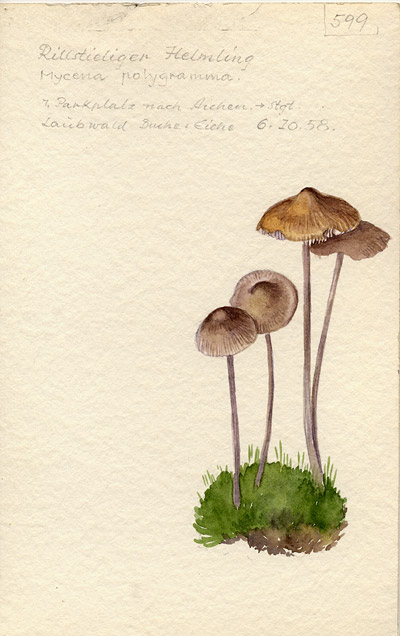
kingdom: Fungi
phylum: Basidiomycota
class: Agaricomycetes
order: Agaricales
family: Mycenaceae
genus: Mycena
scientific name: Mycena polygramma
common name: Grooved bonnet
